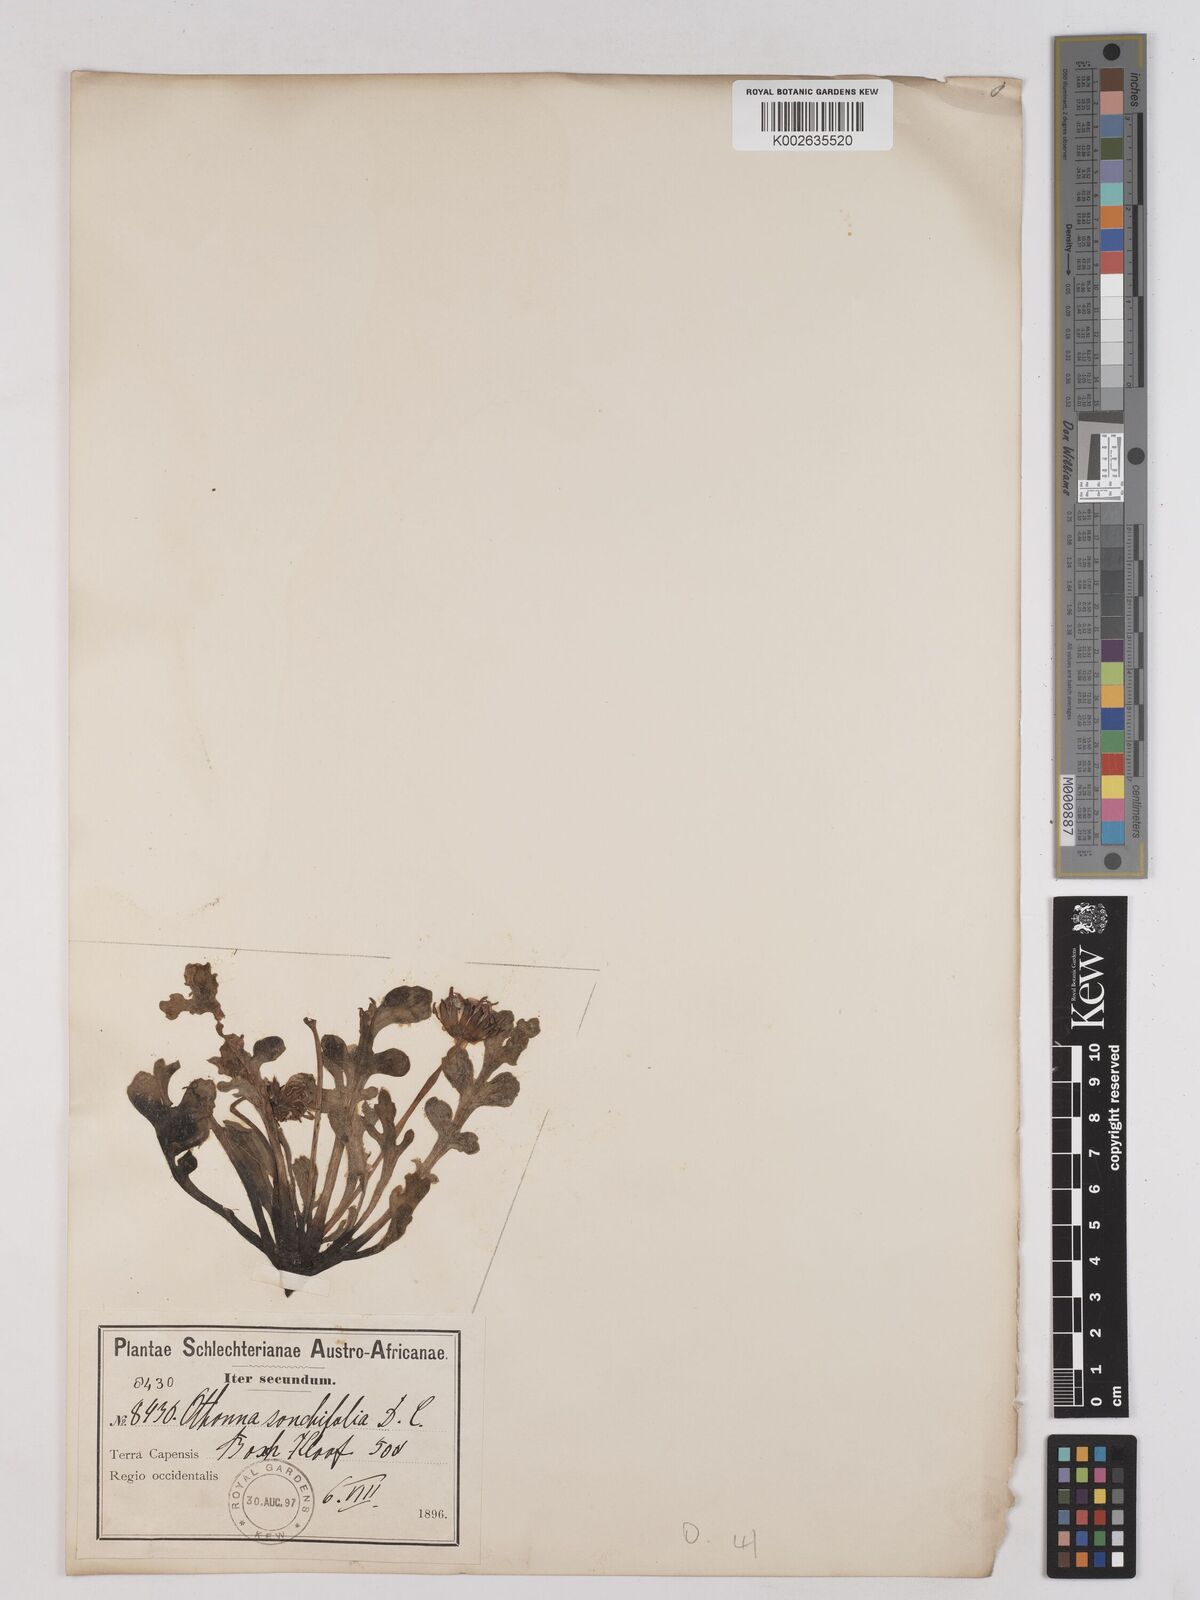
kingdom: Plantae
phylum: Tracheophyta
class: Magnoliopsida
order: Asterales
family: Asteraceae
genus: Othonna
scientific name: Othonna rotundiloba
